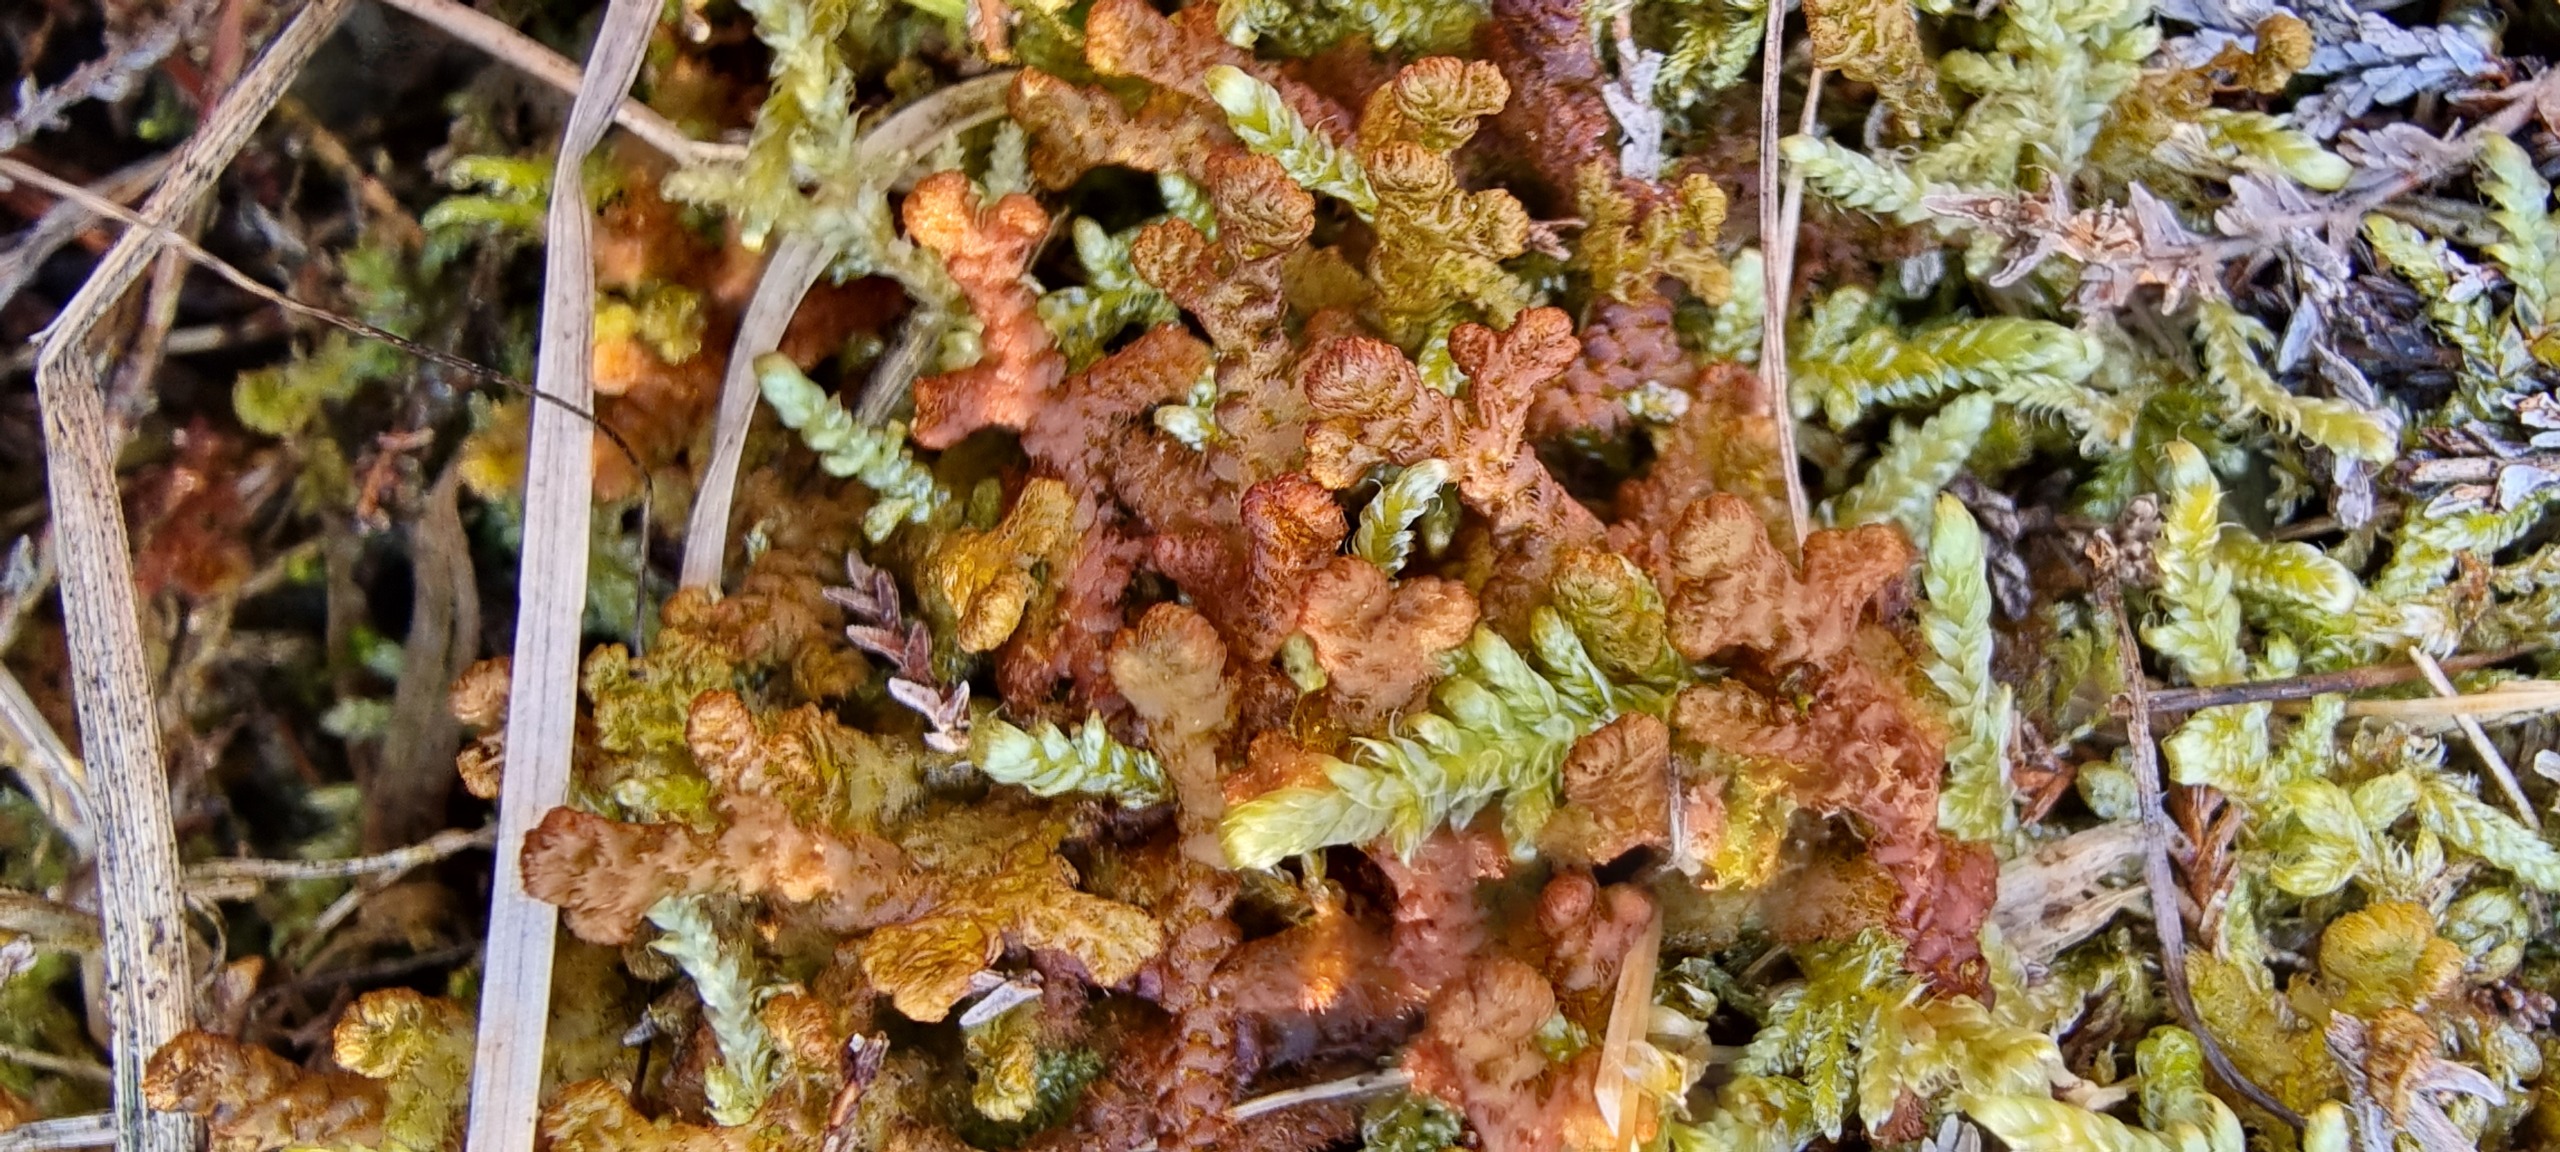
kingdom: Plantae
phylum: Marchantiophyta
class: Jungermanniopsida
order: Ptilidiales
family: Ptilidiaceae
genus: Ptilidium
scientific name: Ptilidium ciliare
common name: Almindelig frynsemos
